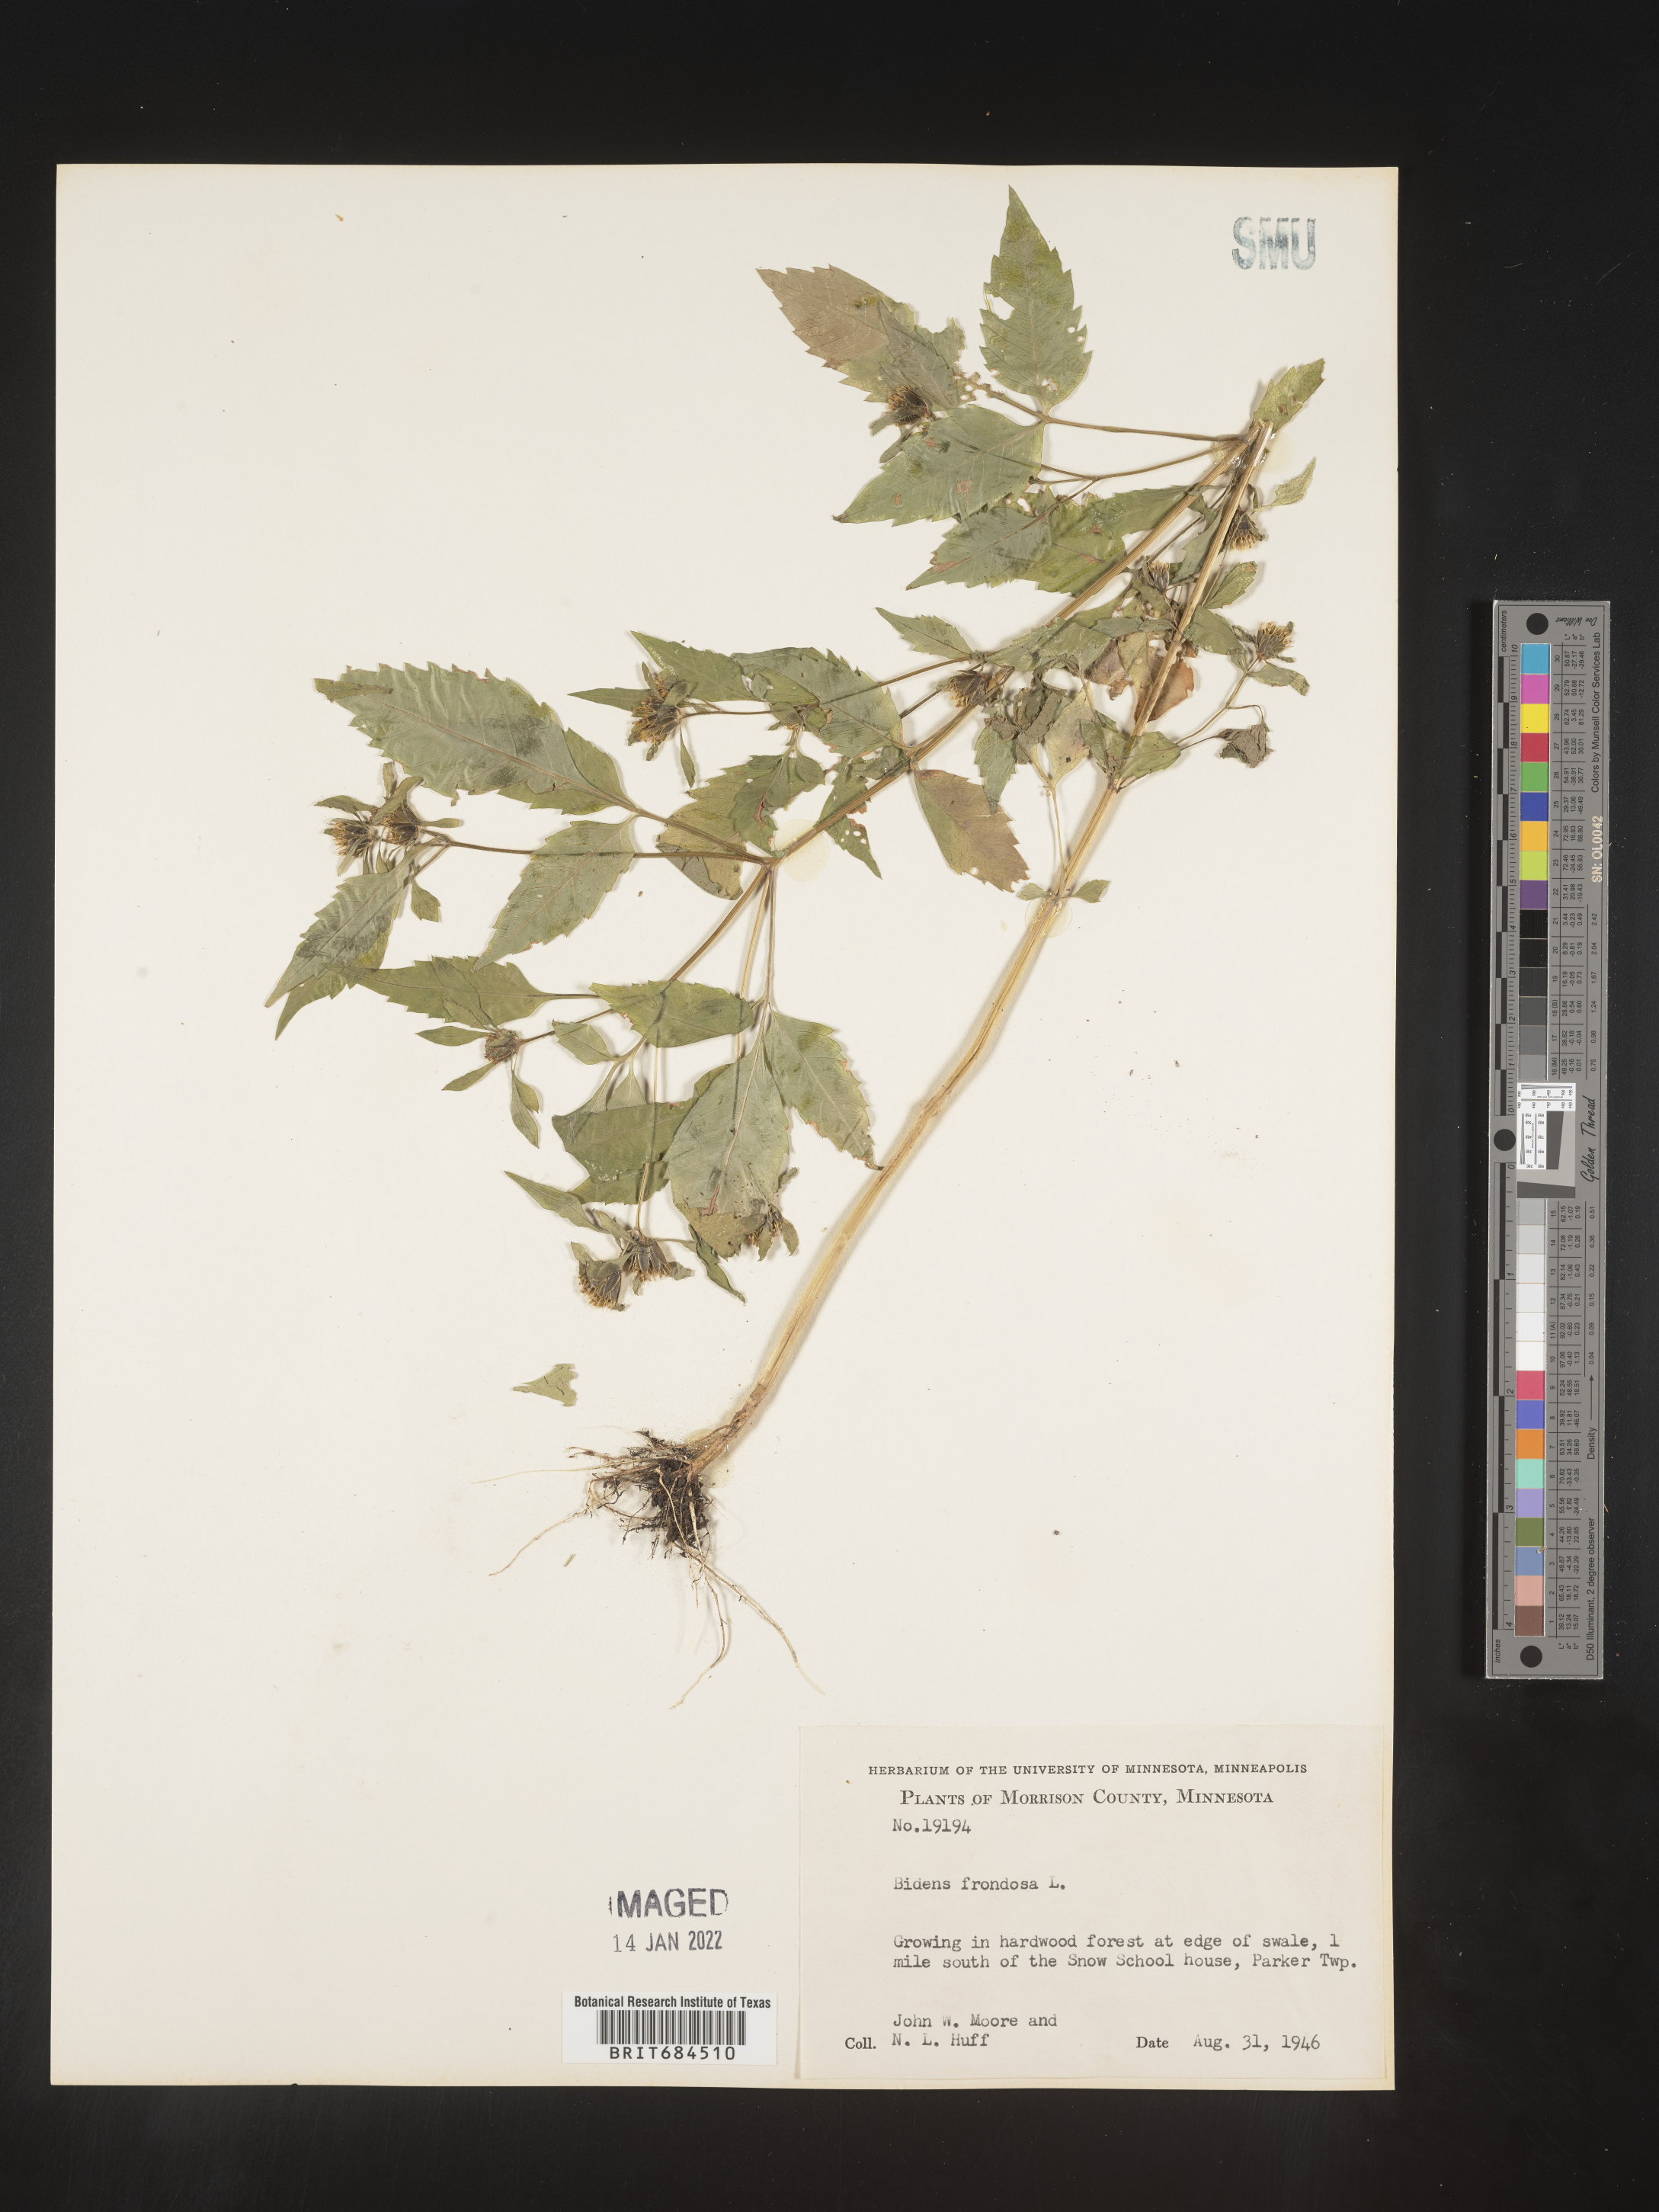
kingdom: Plantae
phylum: Tracheophyta
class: Magnoliopsida
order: Asterales
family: Asteraceae
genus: Bidens
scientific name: Bidens frondosa
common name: Beggarticks
